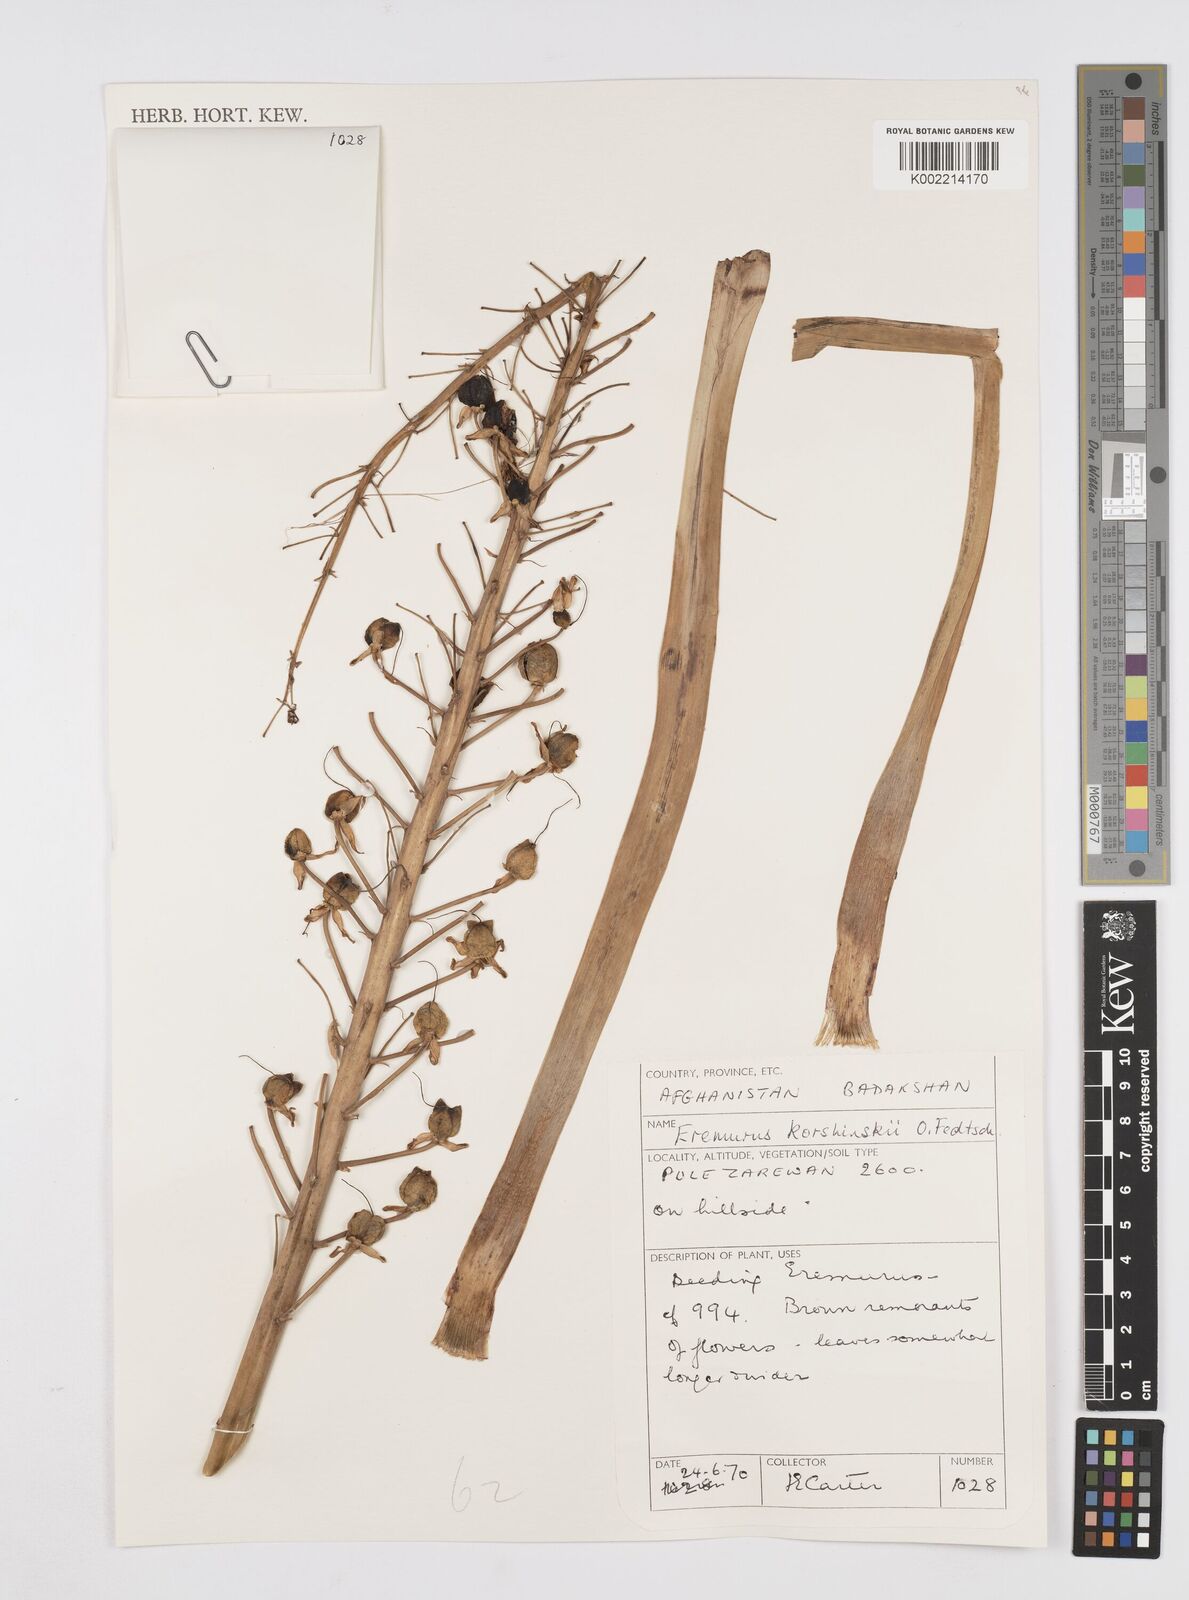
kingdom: Plantae
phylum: Tracheophyta
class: Liliopsida
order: Asparagales
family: Asphodelaceae
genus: Eremurus
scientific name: Eremurus korshinskyi
